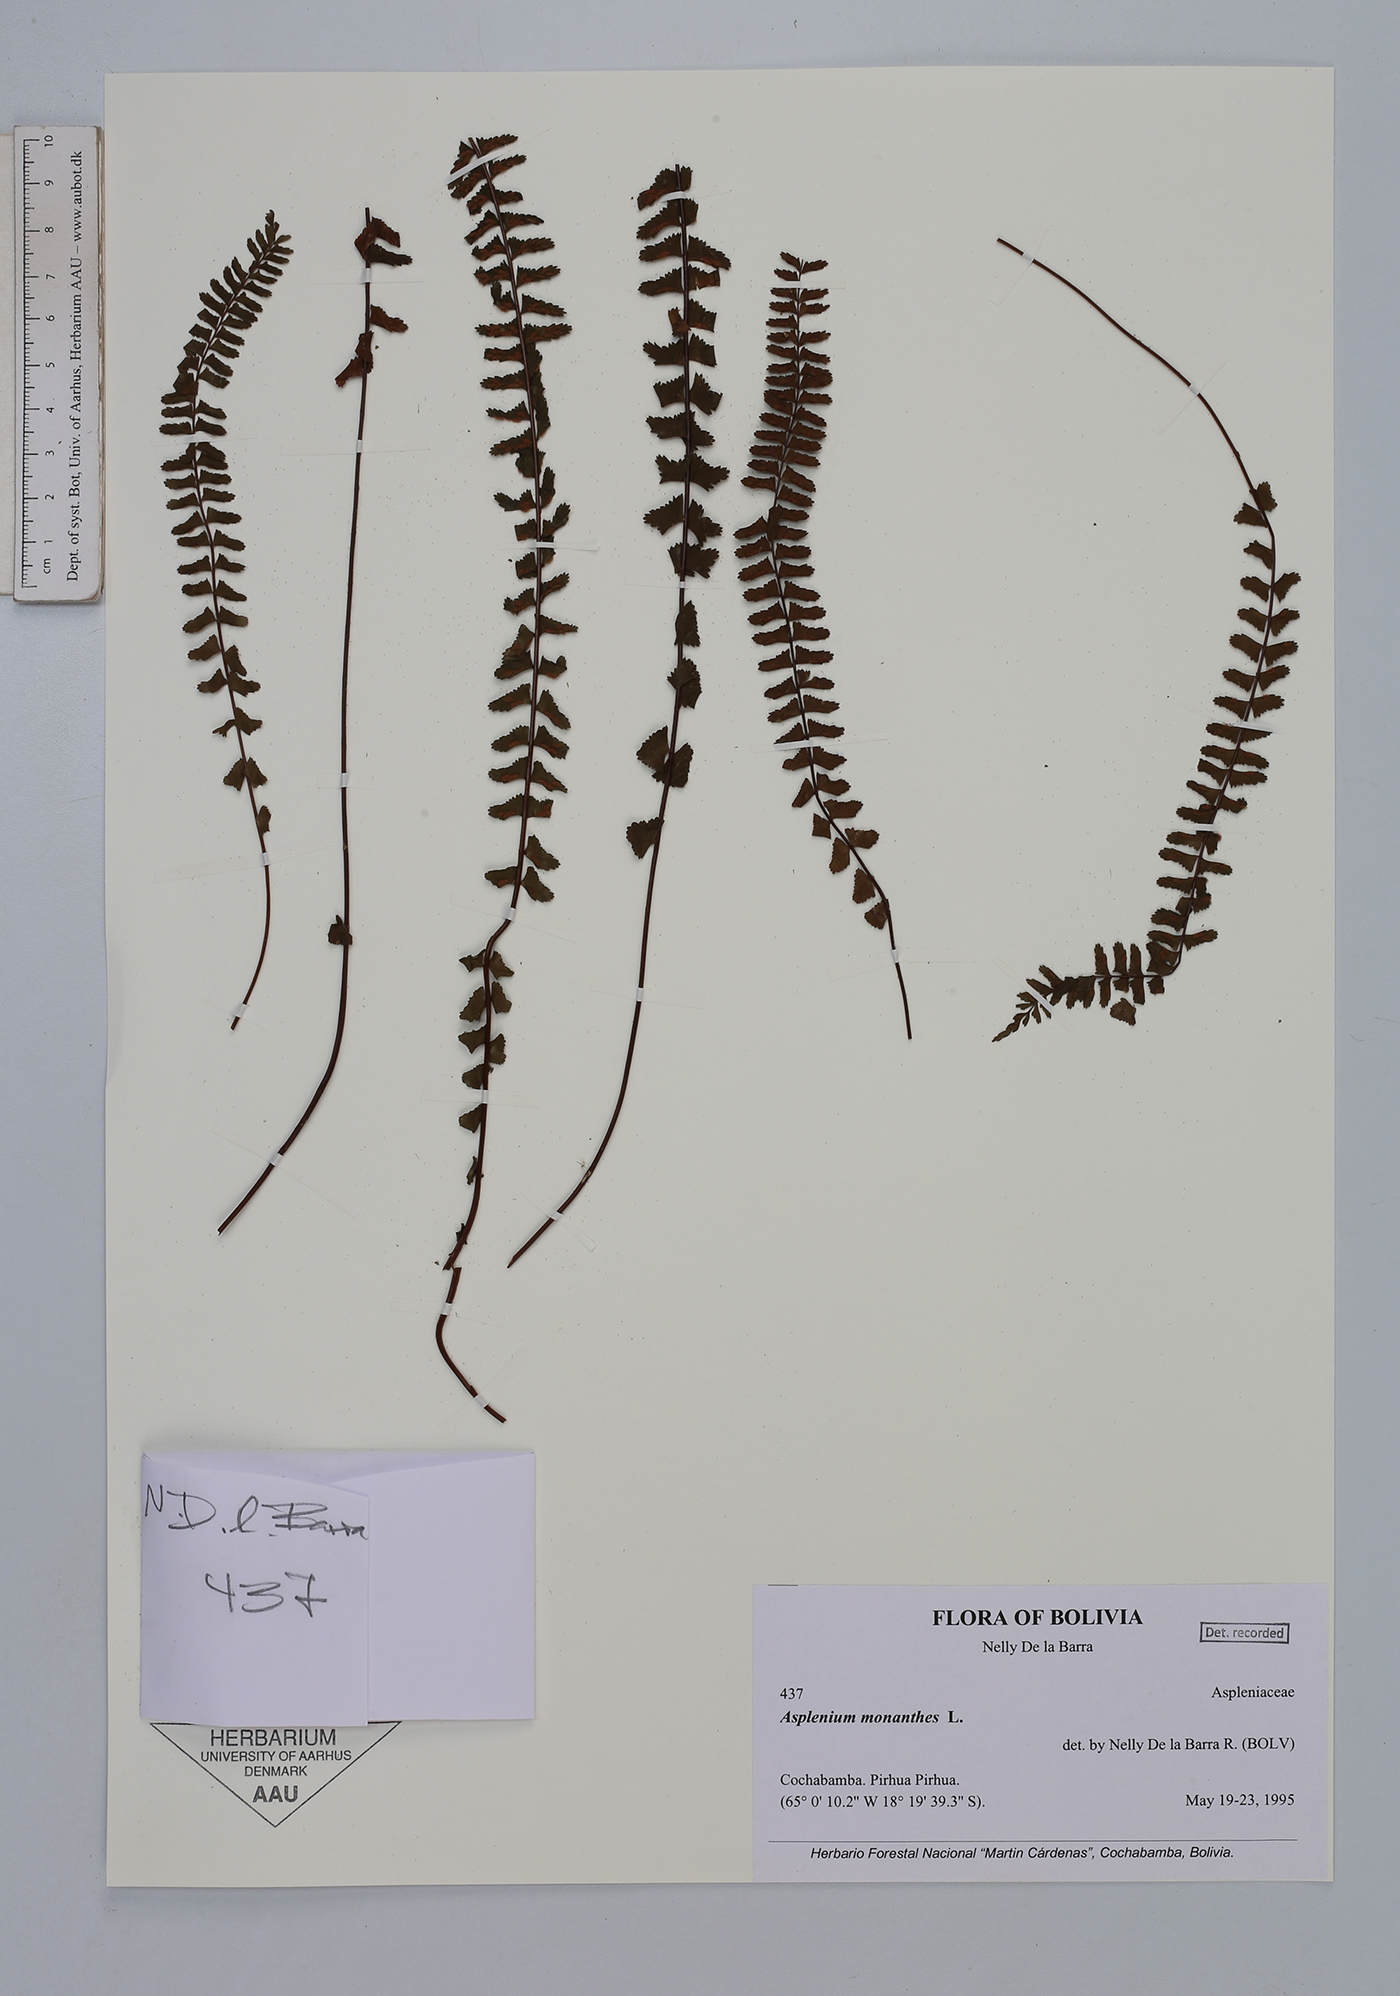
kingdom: Plantae
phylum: Tracheophyta
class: Polypodiopsida
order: Polypodiales
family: Aspleniaceae
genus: Asplenium
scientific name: Asplenium monanthes
